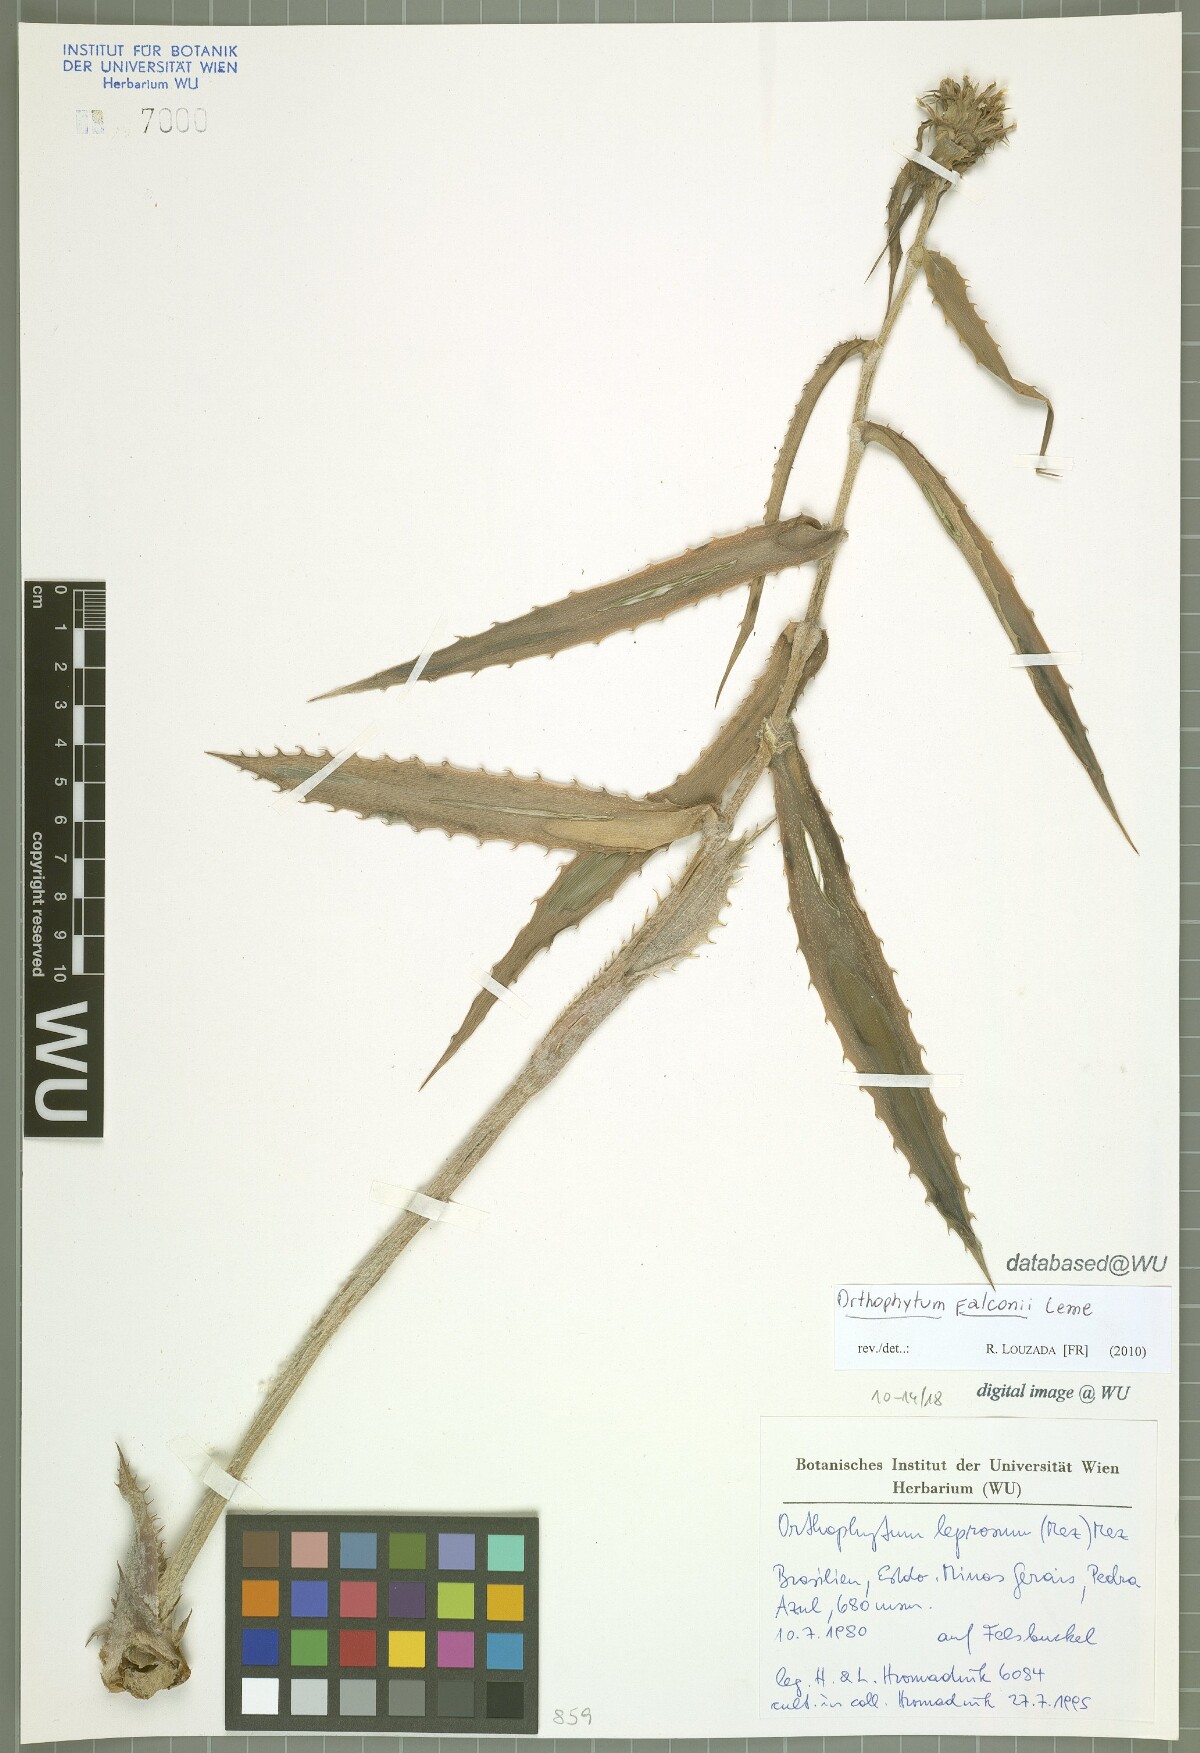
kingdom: Plantae
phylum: Tracheophyta
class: Liliopsida
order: Poales
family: Bromeliaceae
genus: Orthophytum
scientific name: Orthophytum falconii
